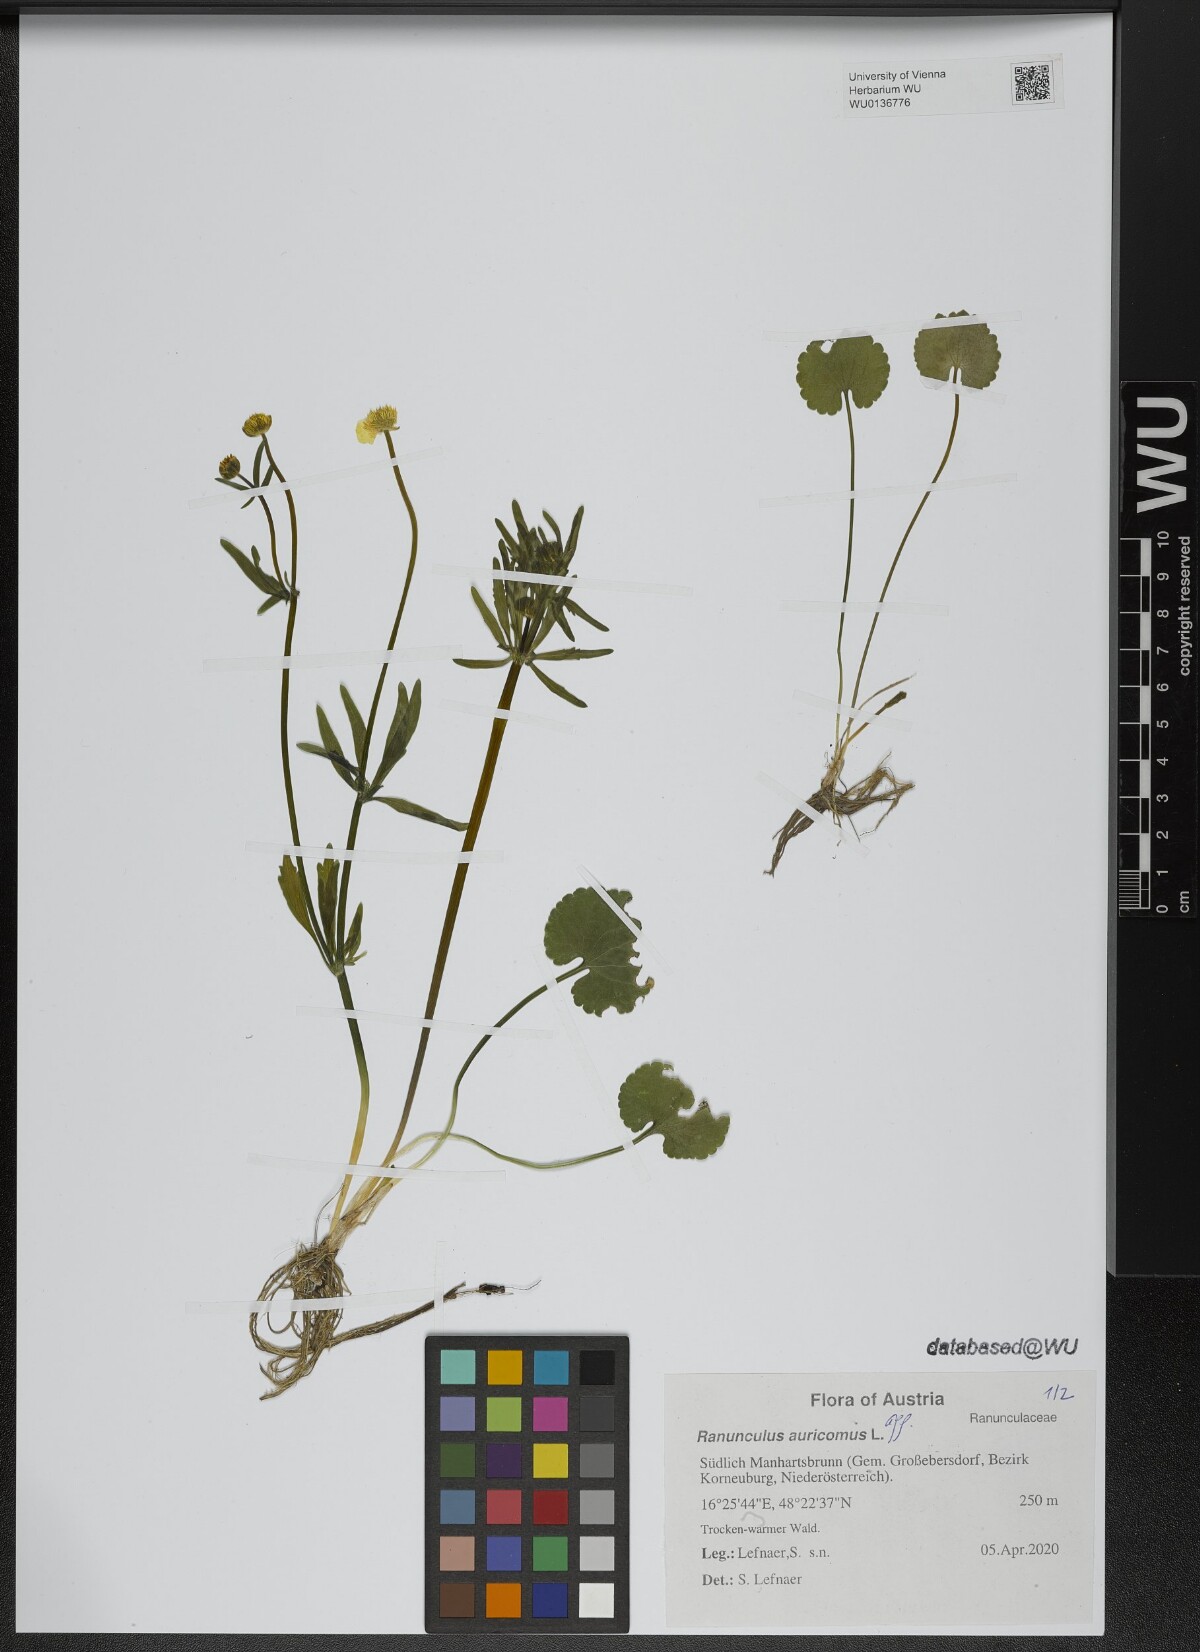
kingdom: Plantae
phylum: Tracheophyta
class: Magnoliopsida
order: Ranunculales
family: Ranunculaceae
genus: Ranunculus
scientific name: Ranunculus auricomus
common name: Goldilocks buttercup
